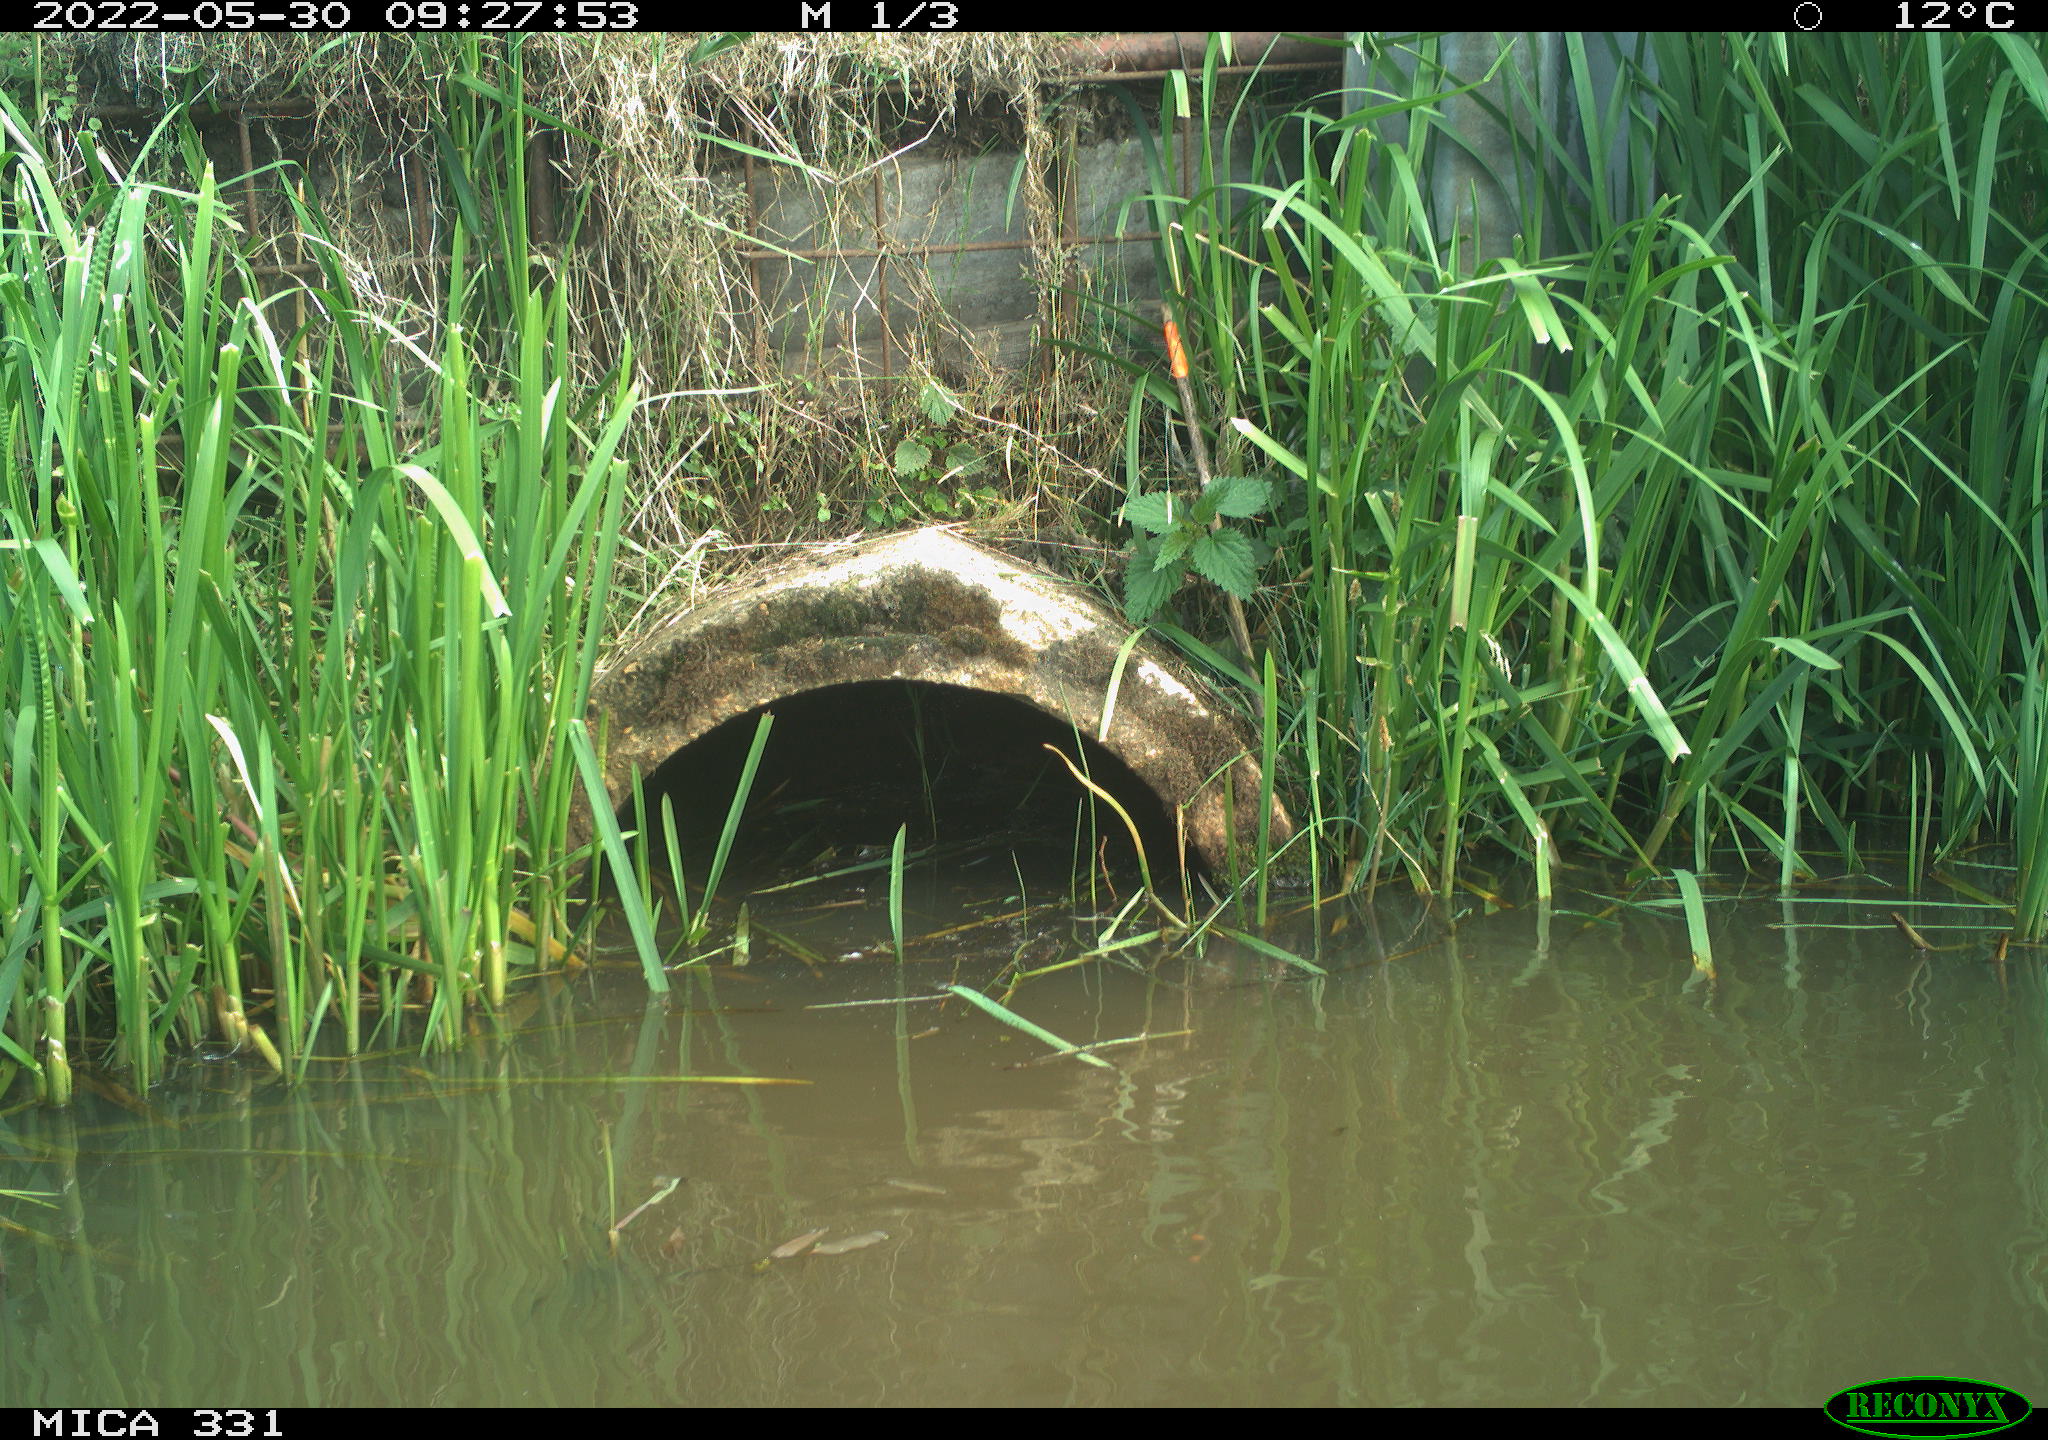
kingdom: Animalia
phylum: Chordata
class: Aves
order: Pelecaniformes
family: Ardeidae
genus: Ardea
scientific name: Ardea
